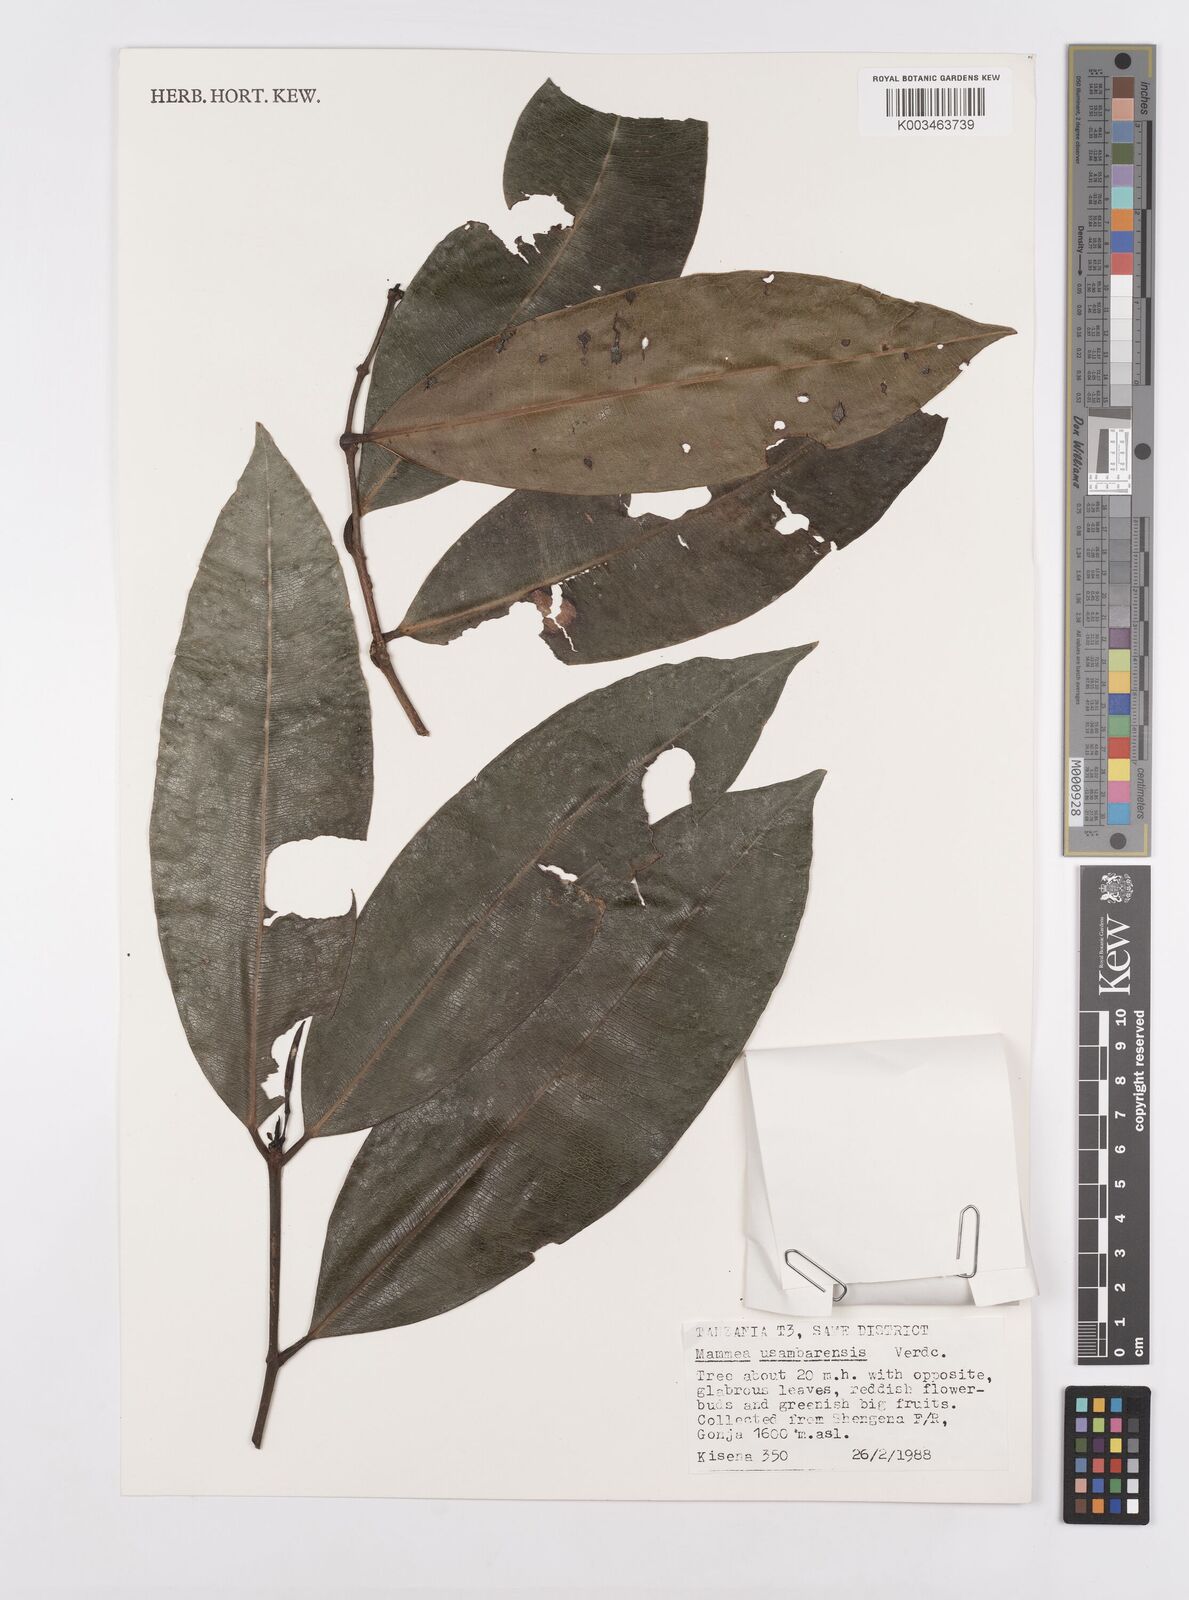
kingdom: Plantae
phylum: Tracheophyta
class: Magnoliopsida
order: Malpighiales
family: Calophyllaceae
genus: Mammea
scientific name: Mammea africana
